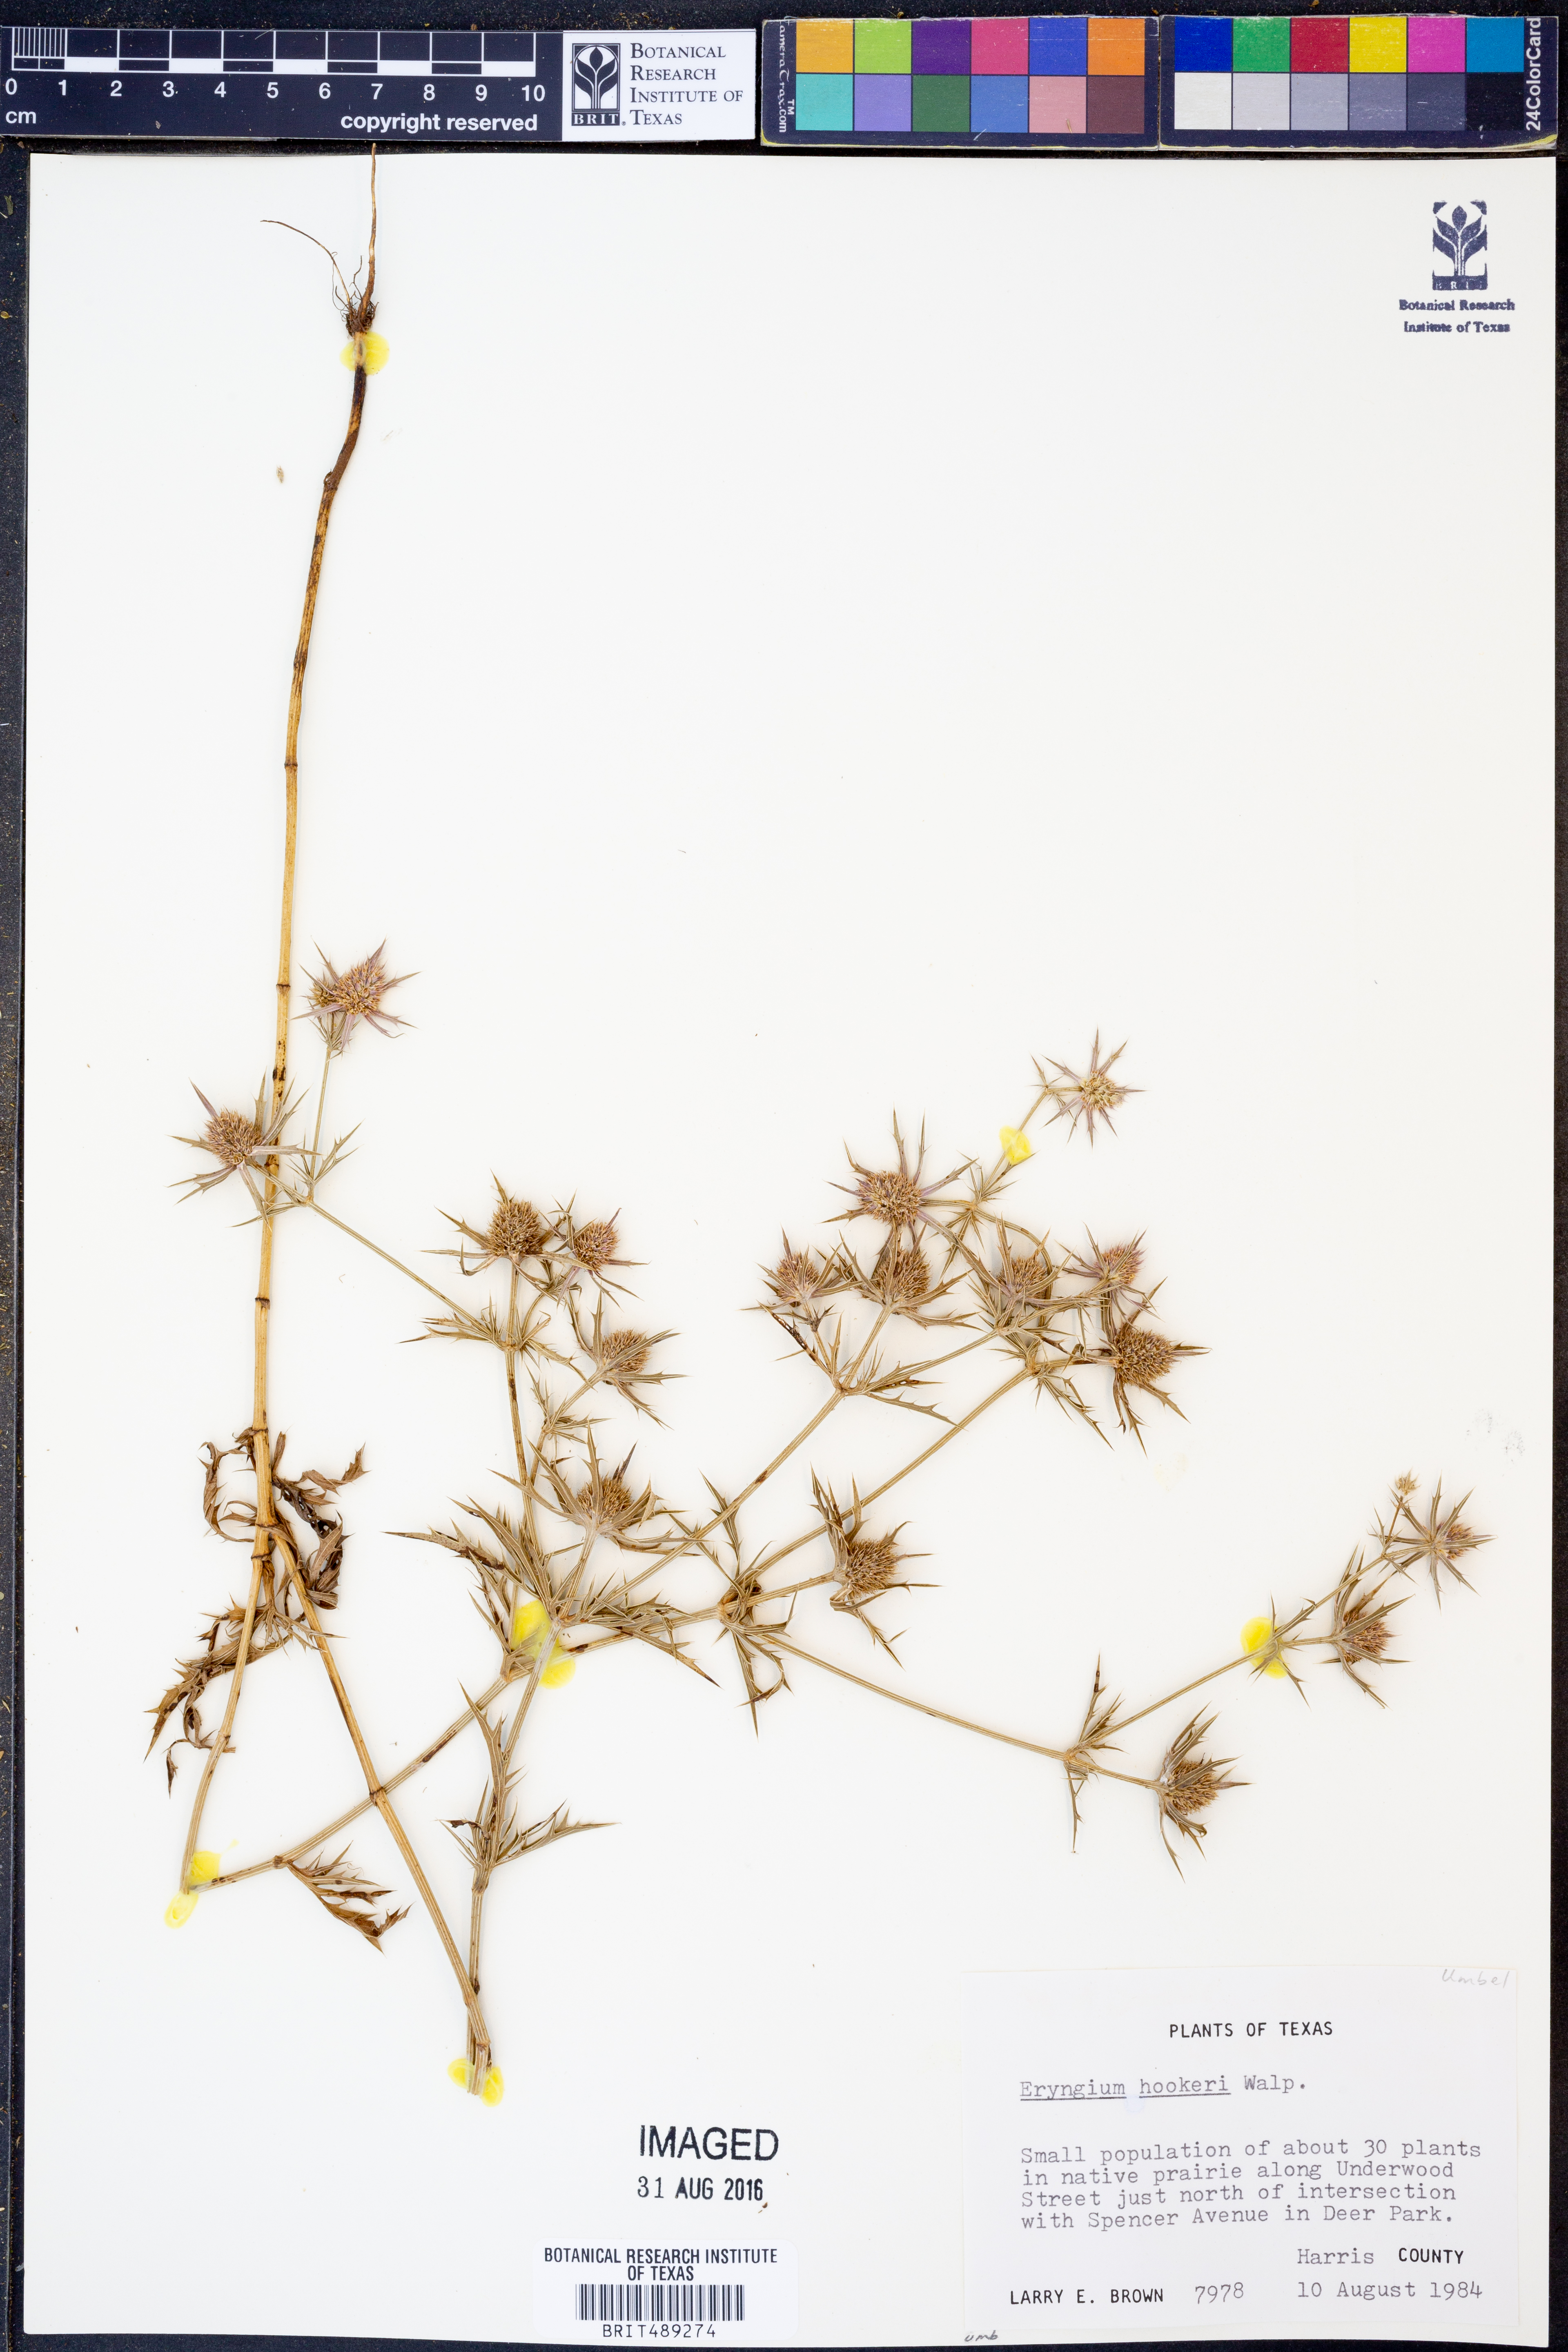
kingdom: Plantae
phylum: Tracheophyta
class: Magnoliopsida
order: Apiales
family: Apiaceae
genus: Eryngium
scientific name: Eryngium hookeri
